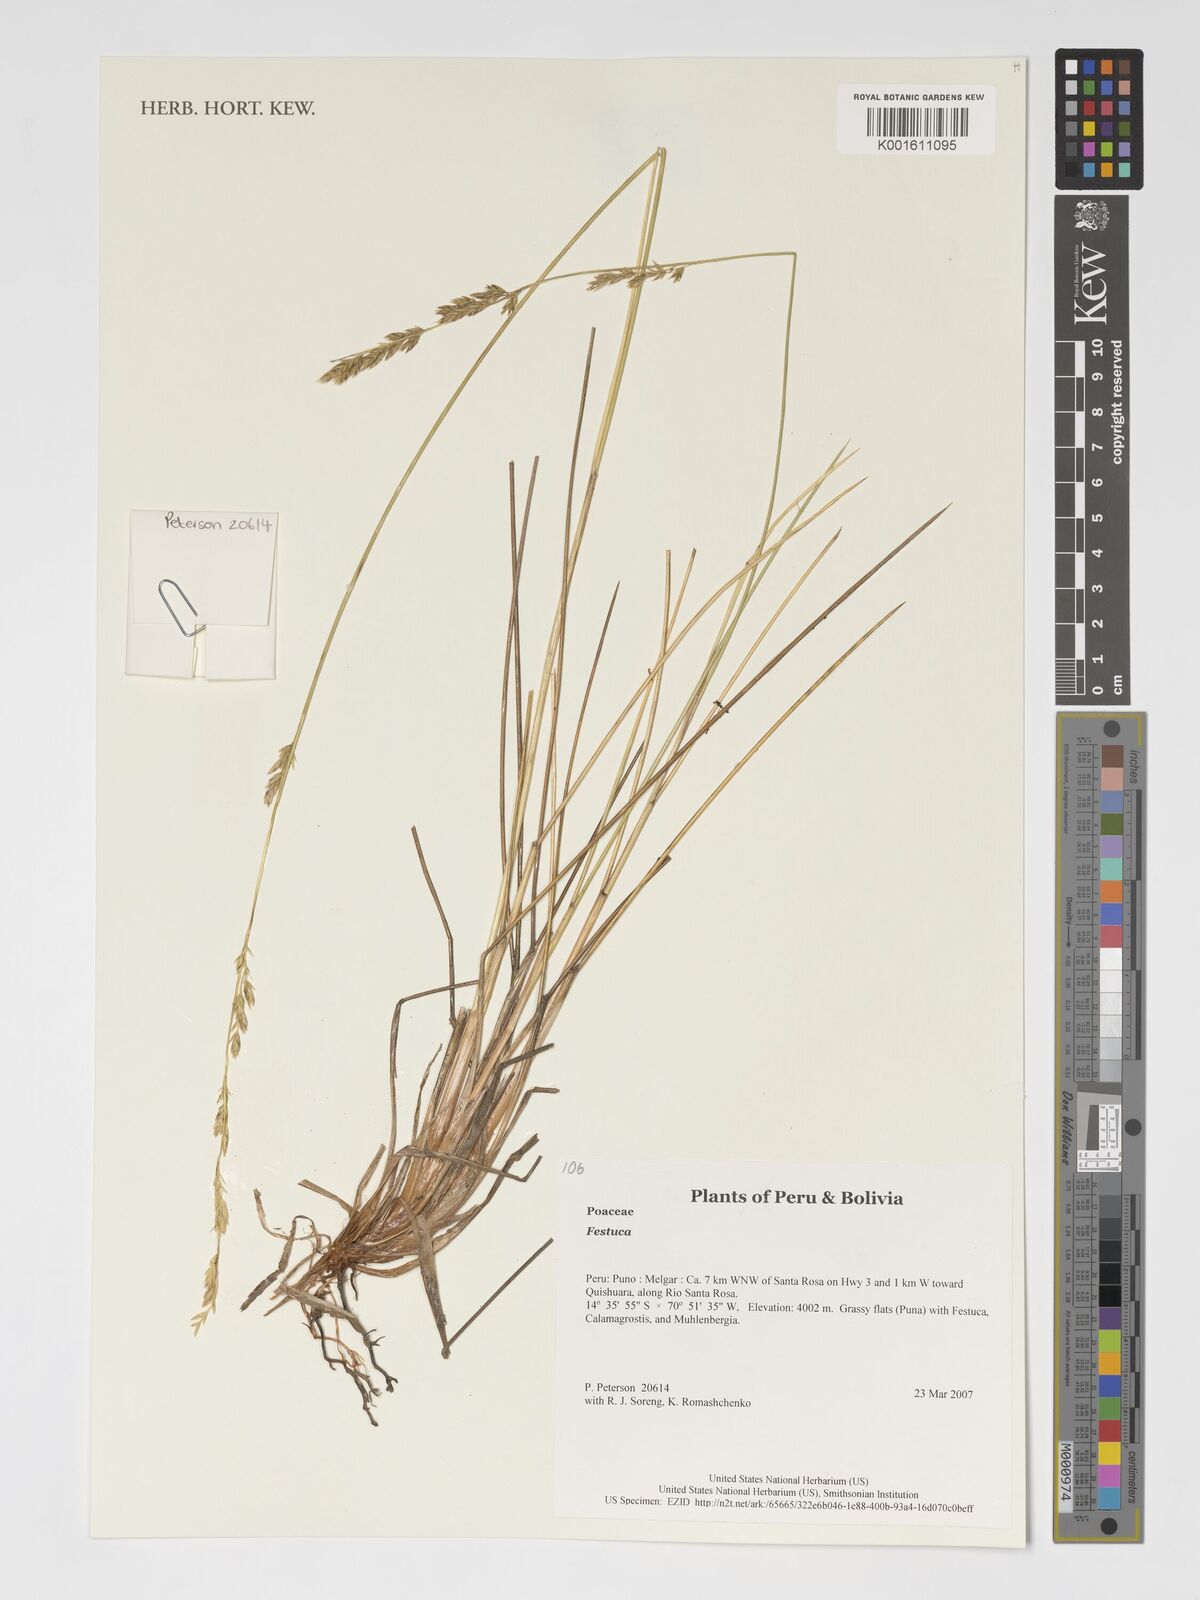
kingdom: Plantae
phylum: Tracheophyta
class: Liliopsida
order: Poales
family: Poaceae
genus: Festuca
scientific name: Festuca
